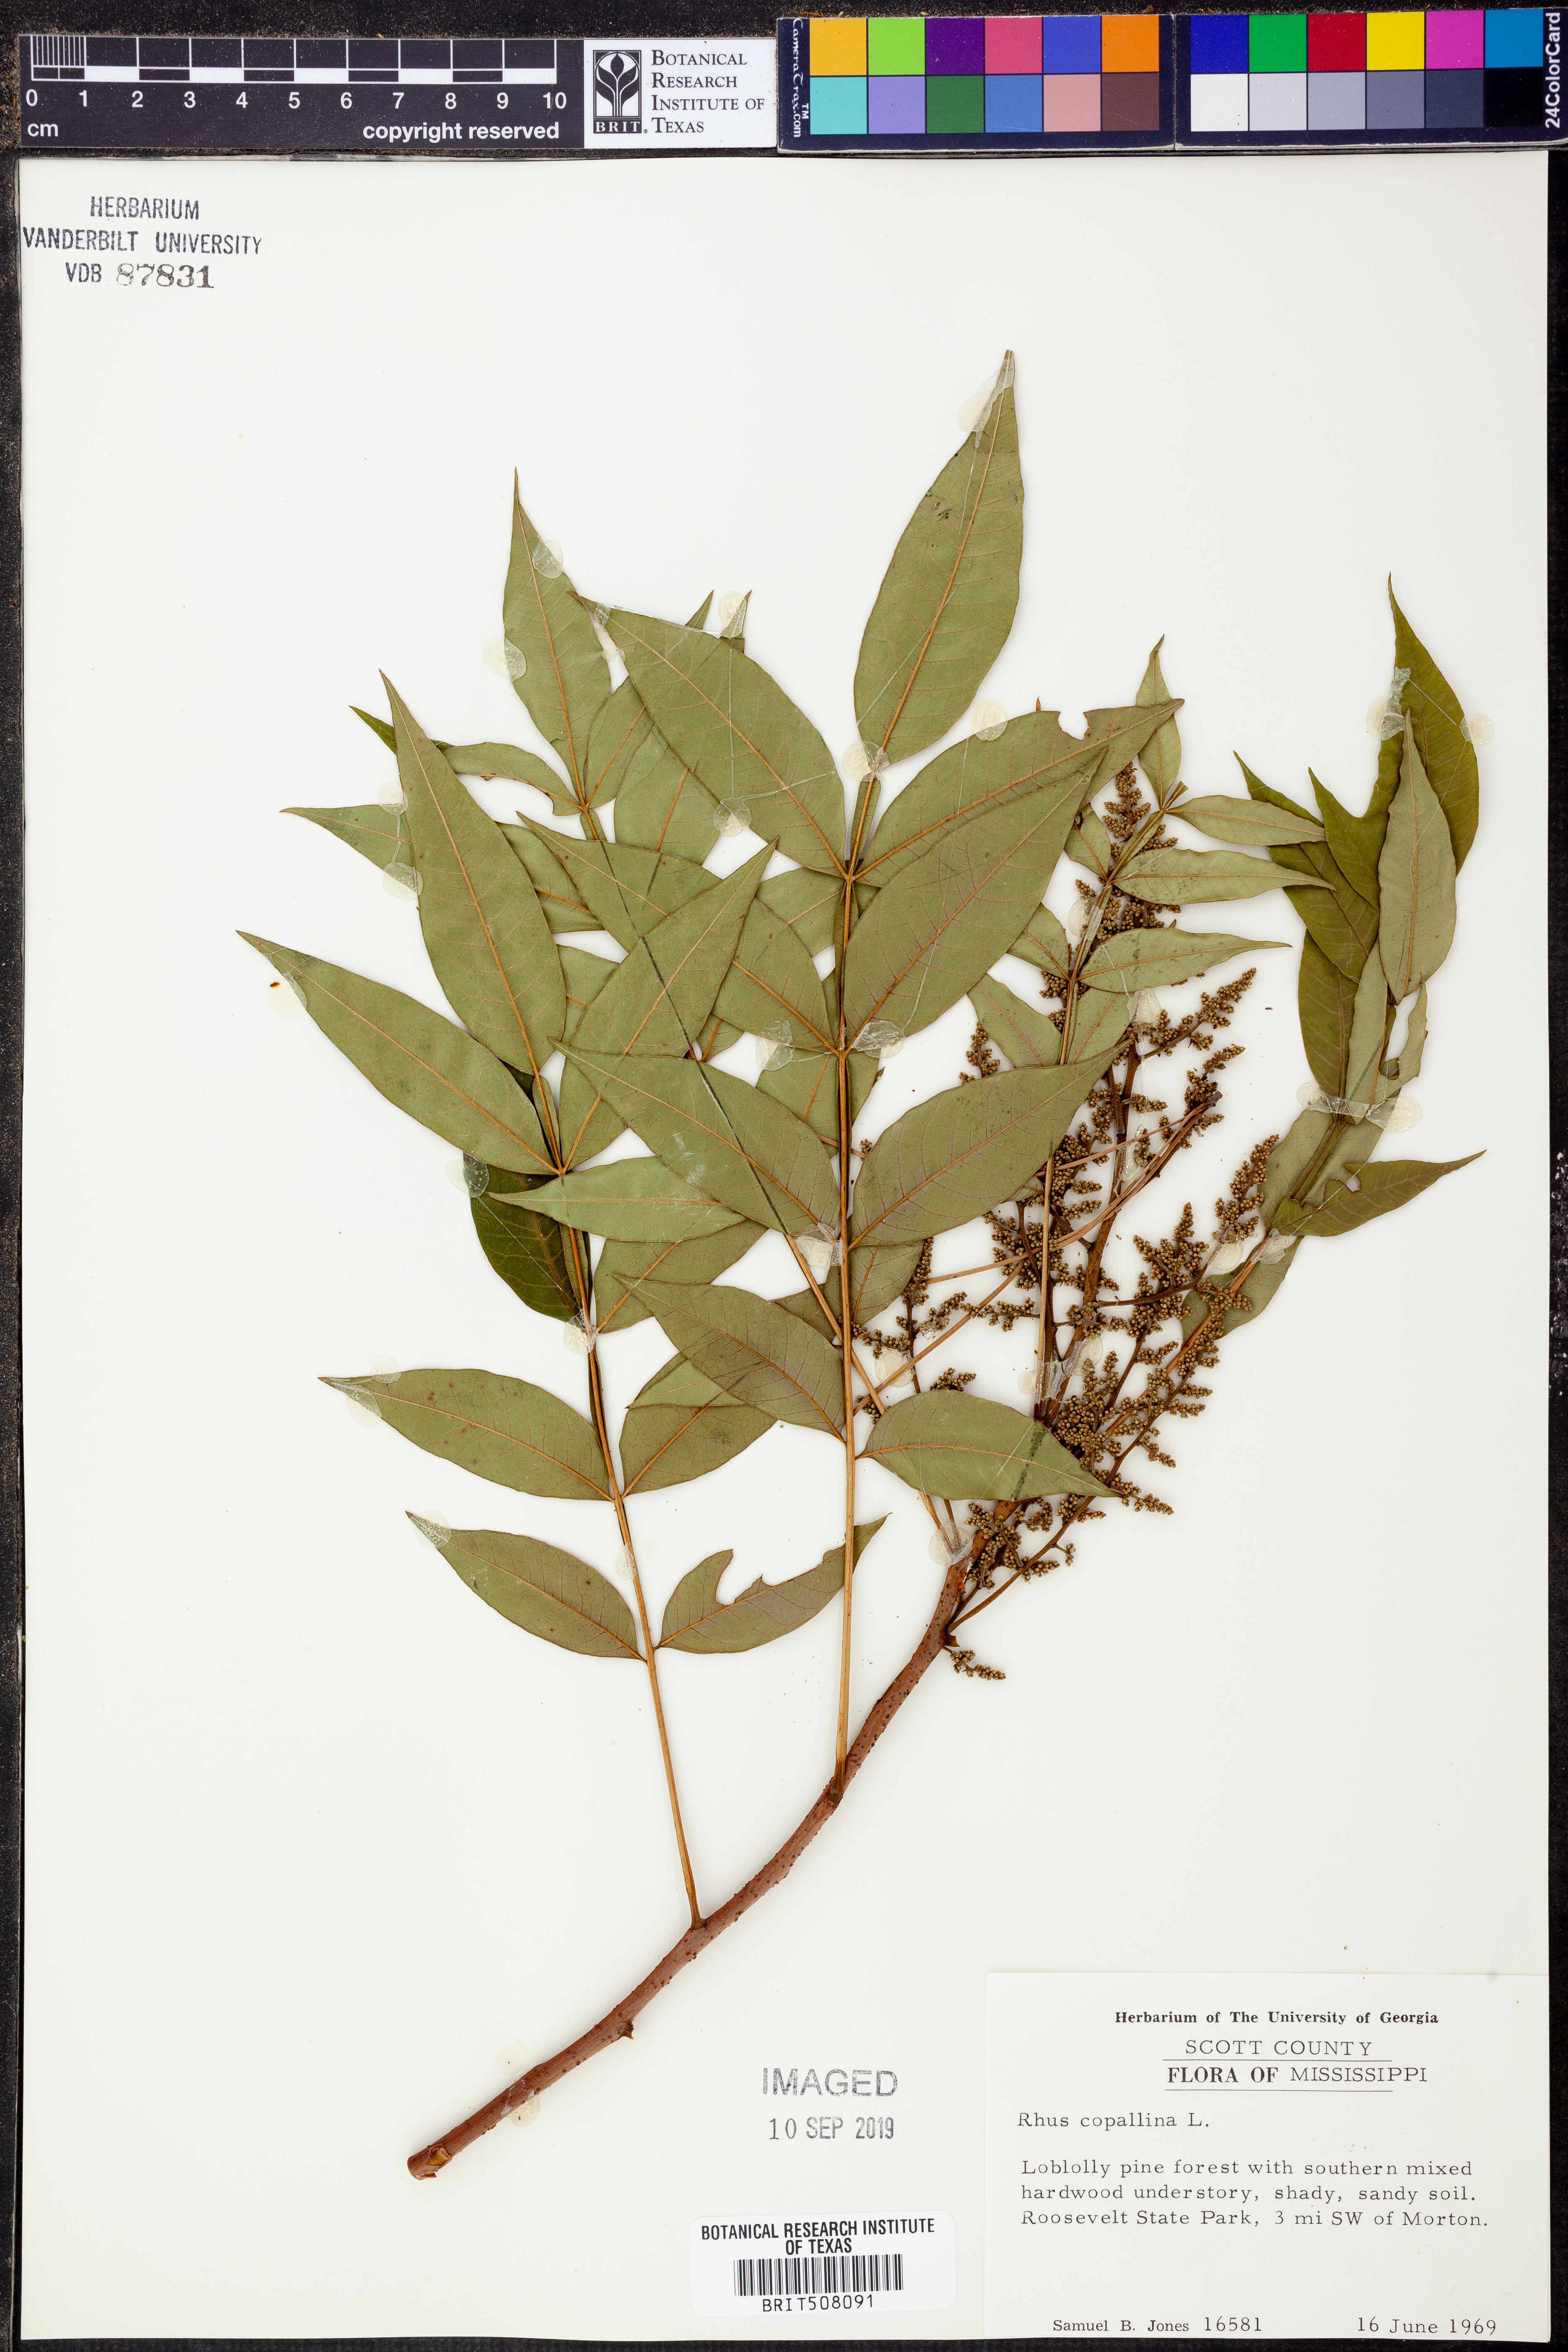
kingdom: Plantae
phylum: Tracheophyta
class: Magnoliopsida
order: Sapindales
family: Anacardiaceae
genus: Rhus
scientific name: Rhus copallina
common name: Shining sumac
